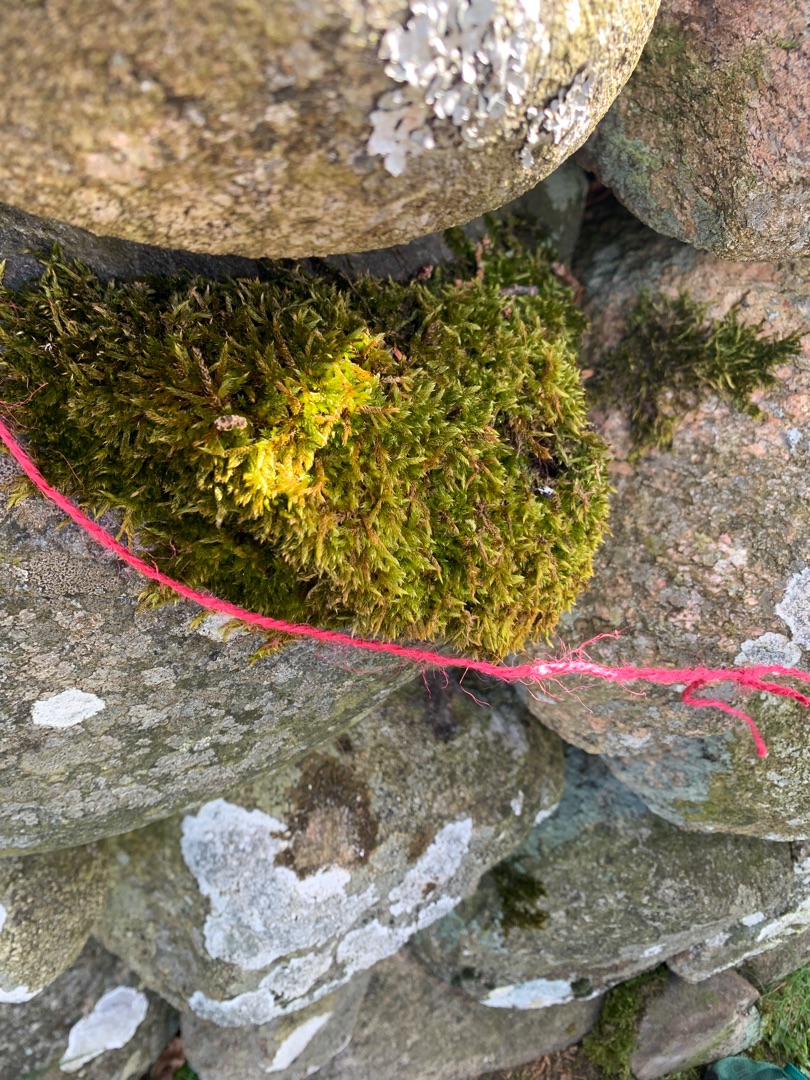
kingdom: Plantae
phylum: Bryophyta
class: Bryopsida
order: Hypnales
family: Hypnaceae
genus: Hypnum
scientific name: Hypnum cupressiforme
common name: Almindelig cypresmos
